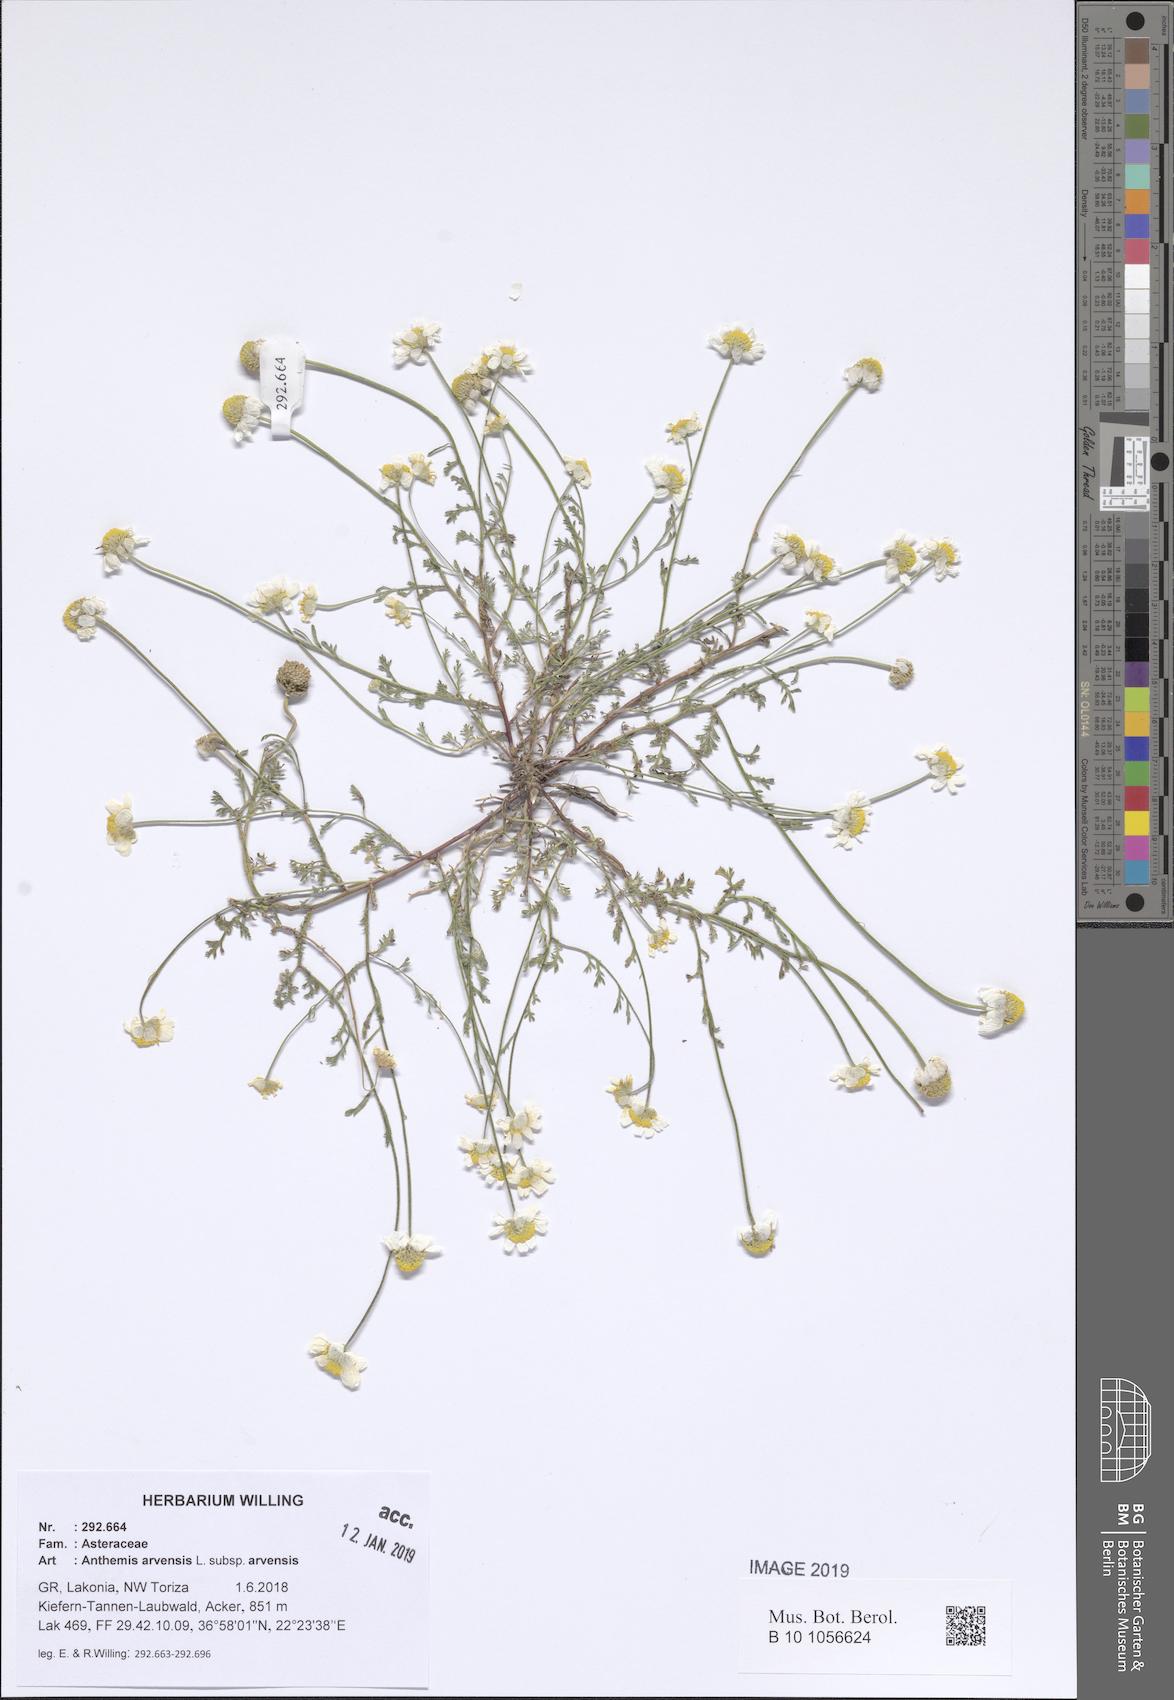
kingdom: Plantae
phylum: Tracheophyta
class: Magnoliopsida
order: Asterales
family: Asteraceae
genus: Anthemis
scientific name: Anthemis arvensis
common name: Corn chamomile
